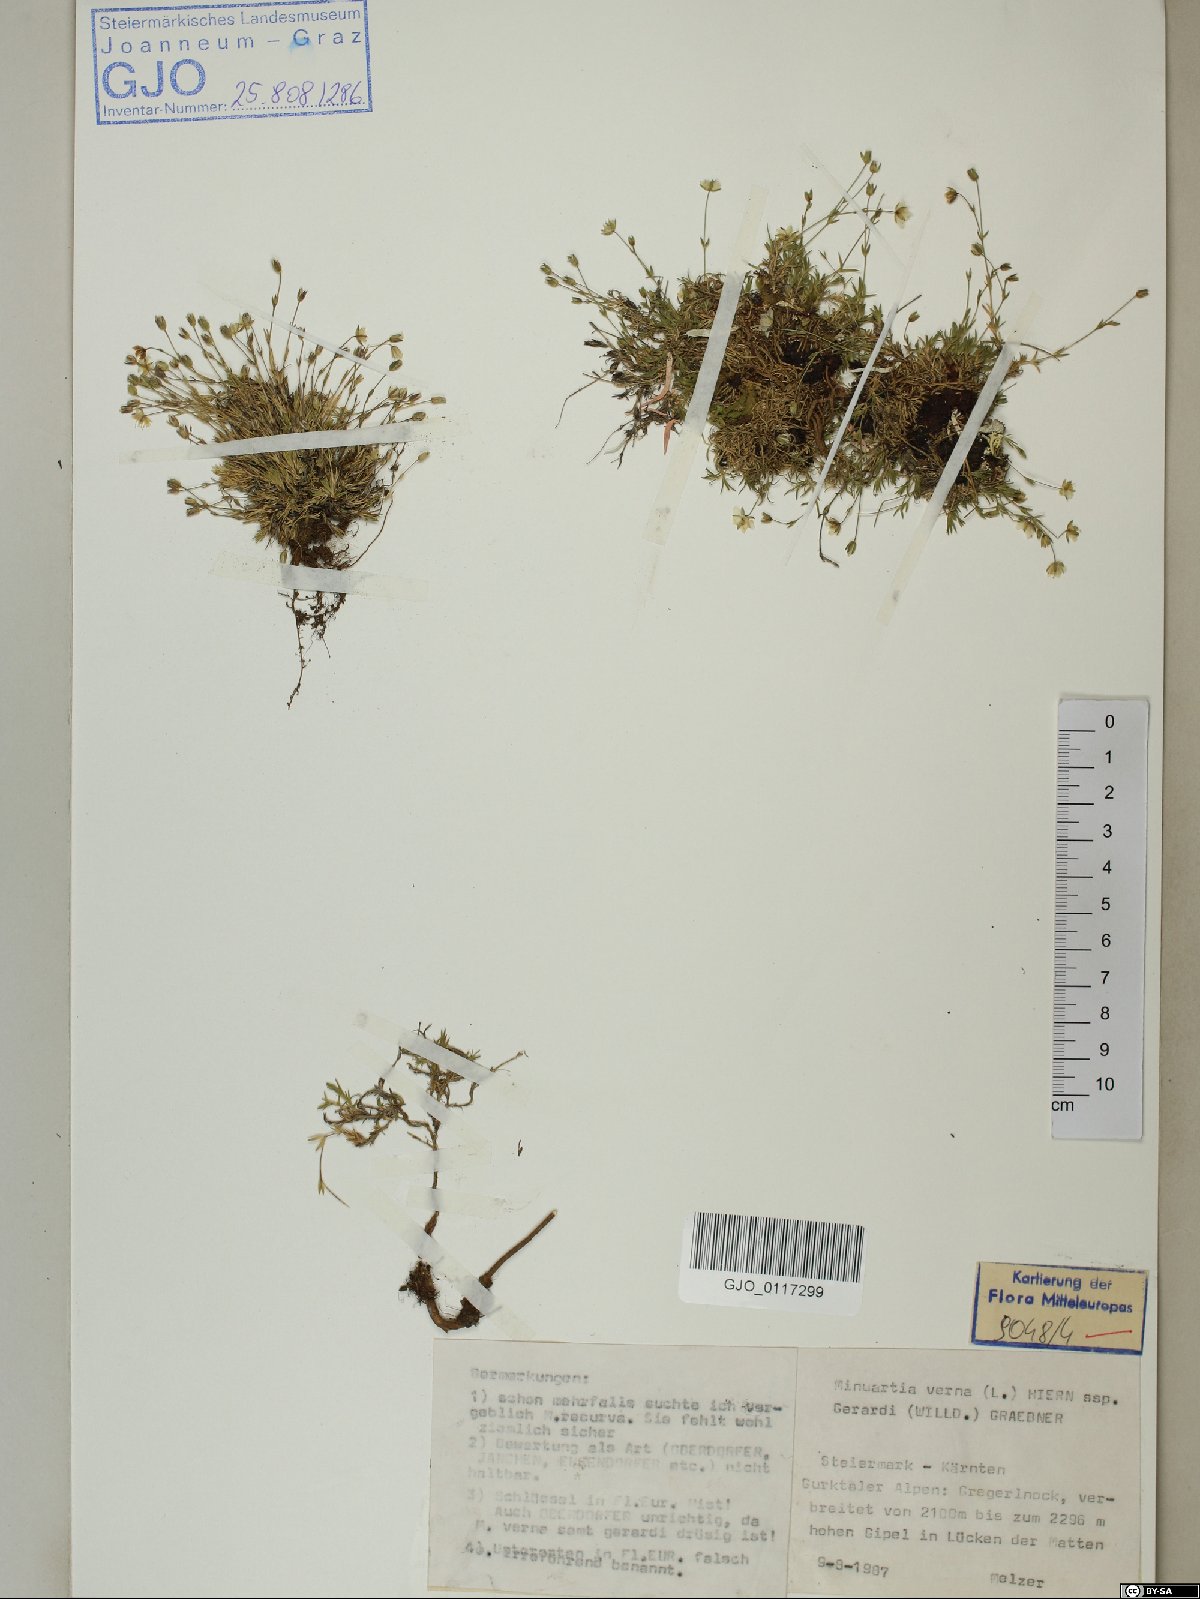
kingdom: Plantae
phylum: Tracheophyta
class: Magnoliopsida
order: Caryophyllales
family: Caryophyllaceae
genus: Sabulina
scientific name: Sabulina verna
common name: Spring sandwort
